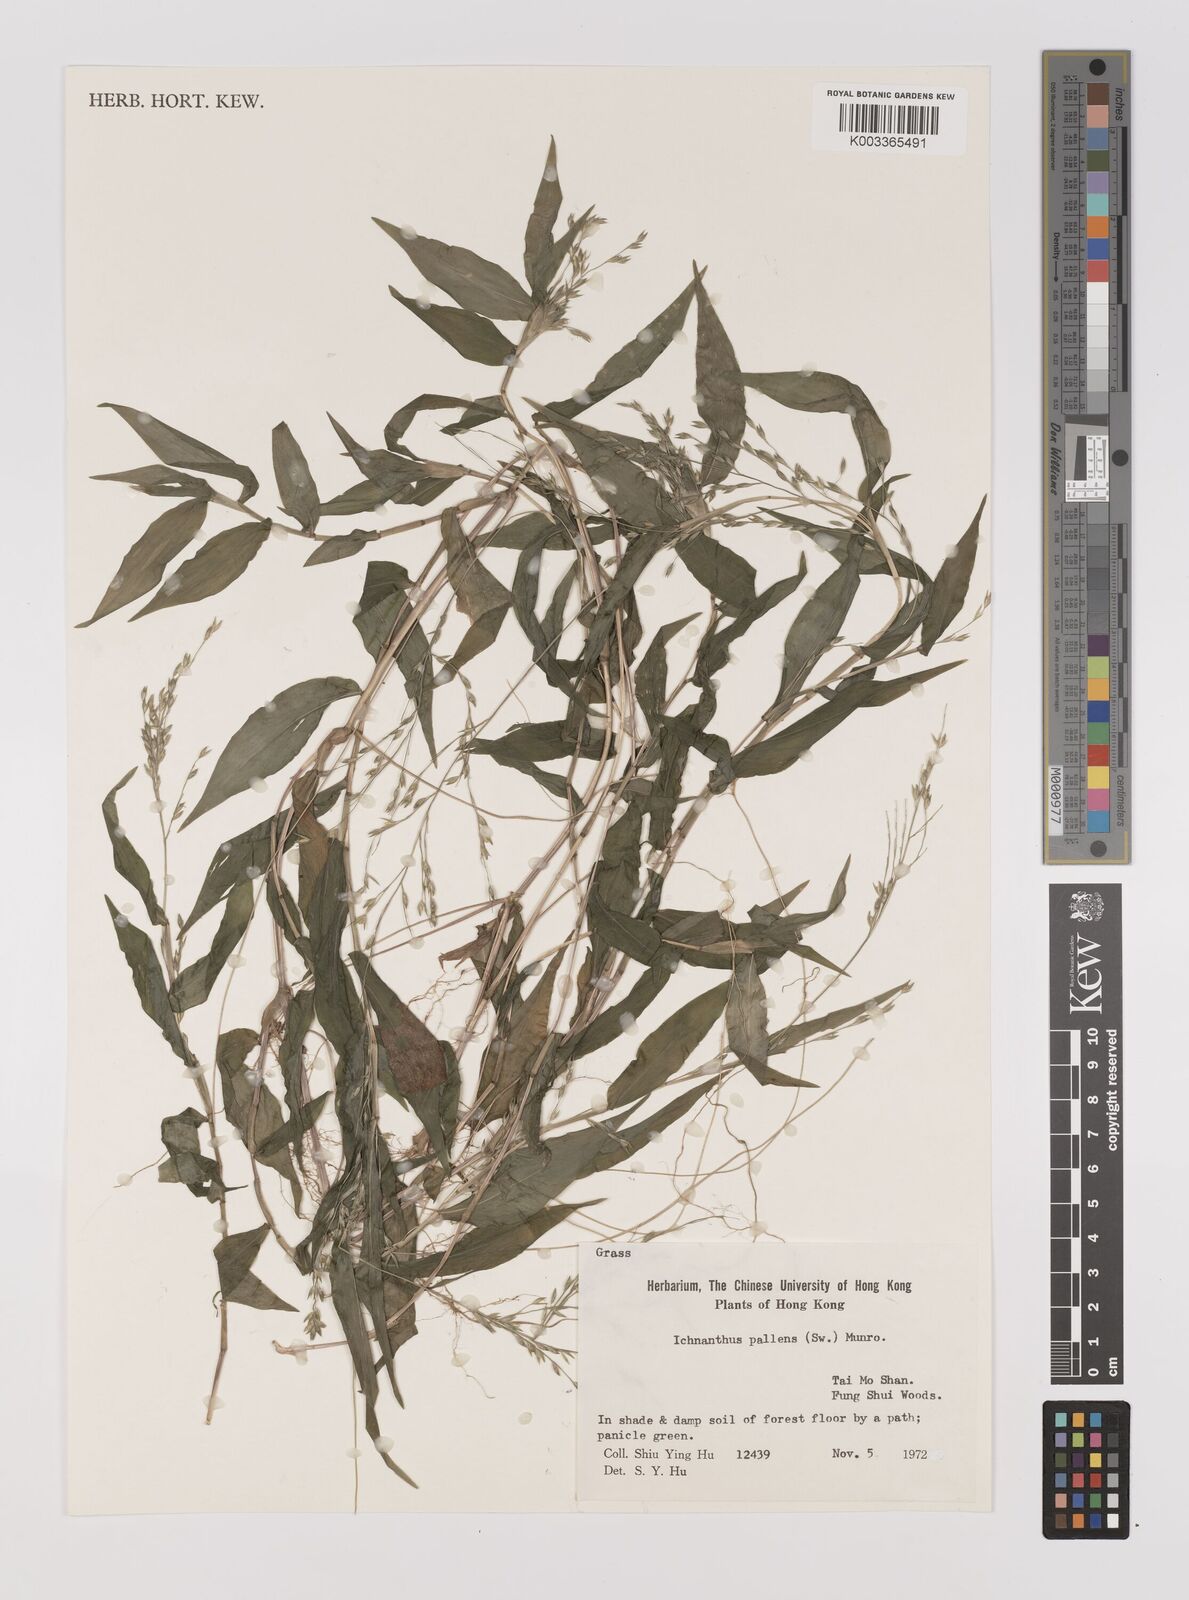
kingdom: Plantae
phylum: Tracheophyta
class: Liliopsida
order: Poales
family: Poaceae
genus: Ichnanthus
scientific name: Ichnanthus pallens
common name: Water grass
